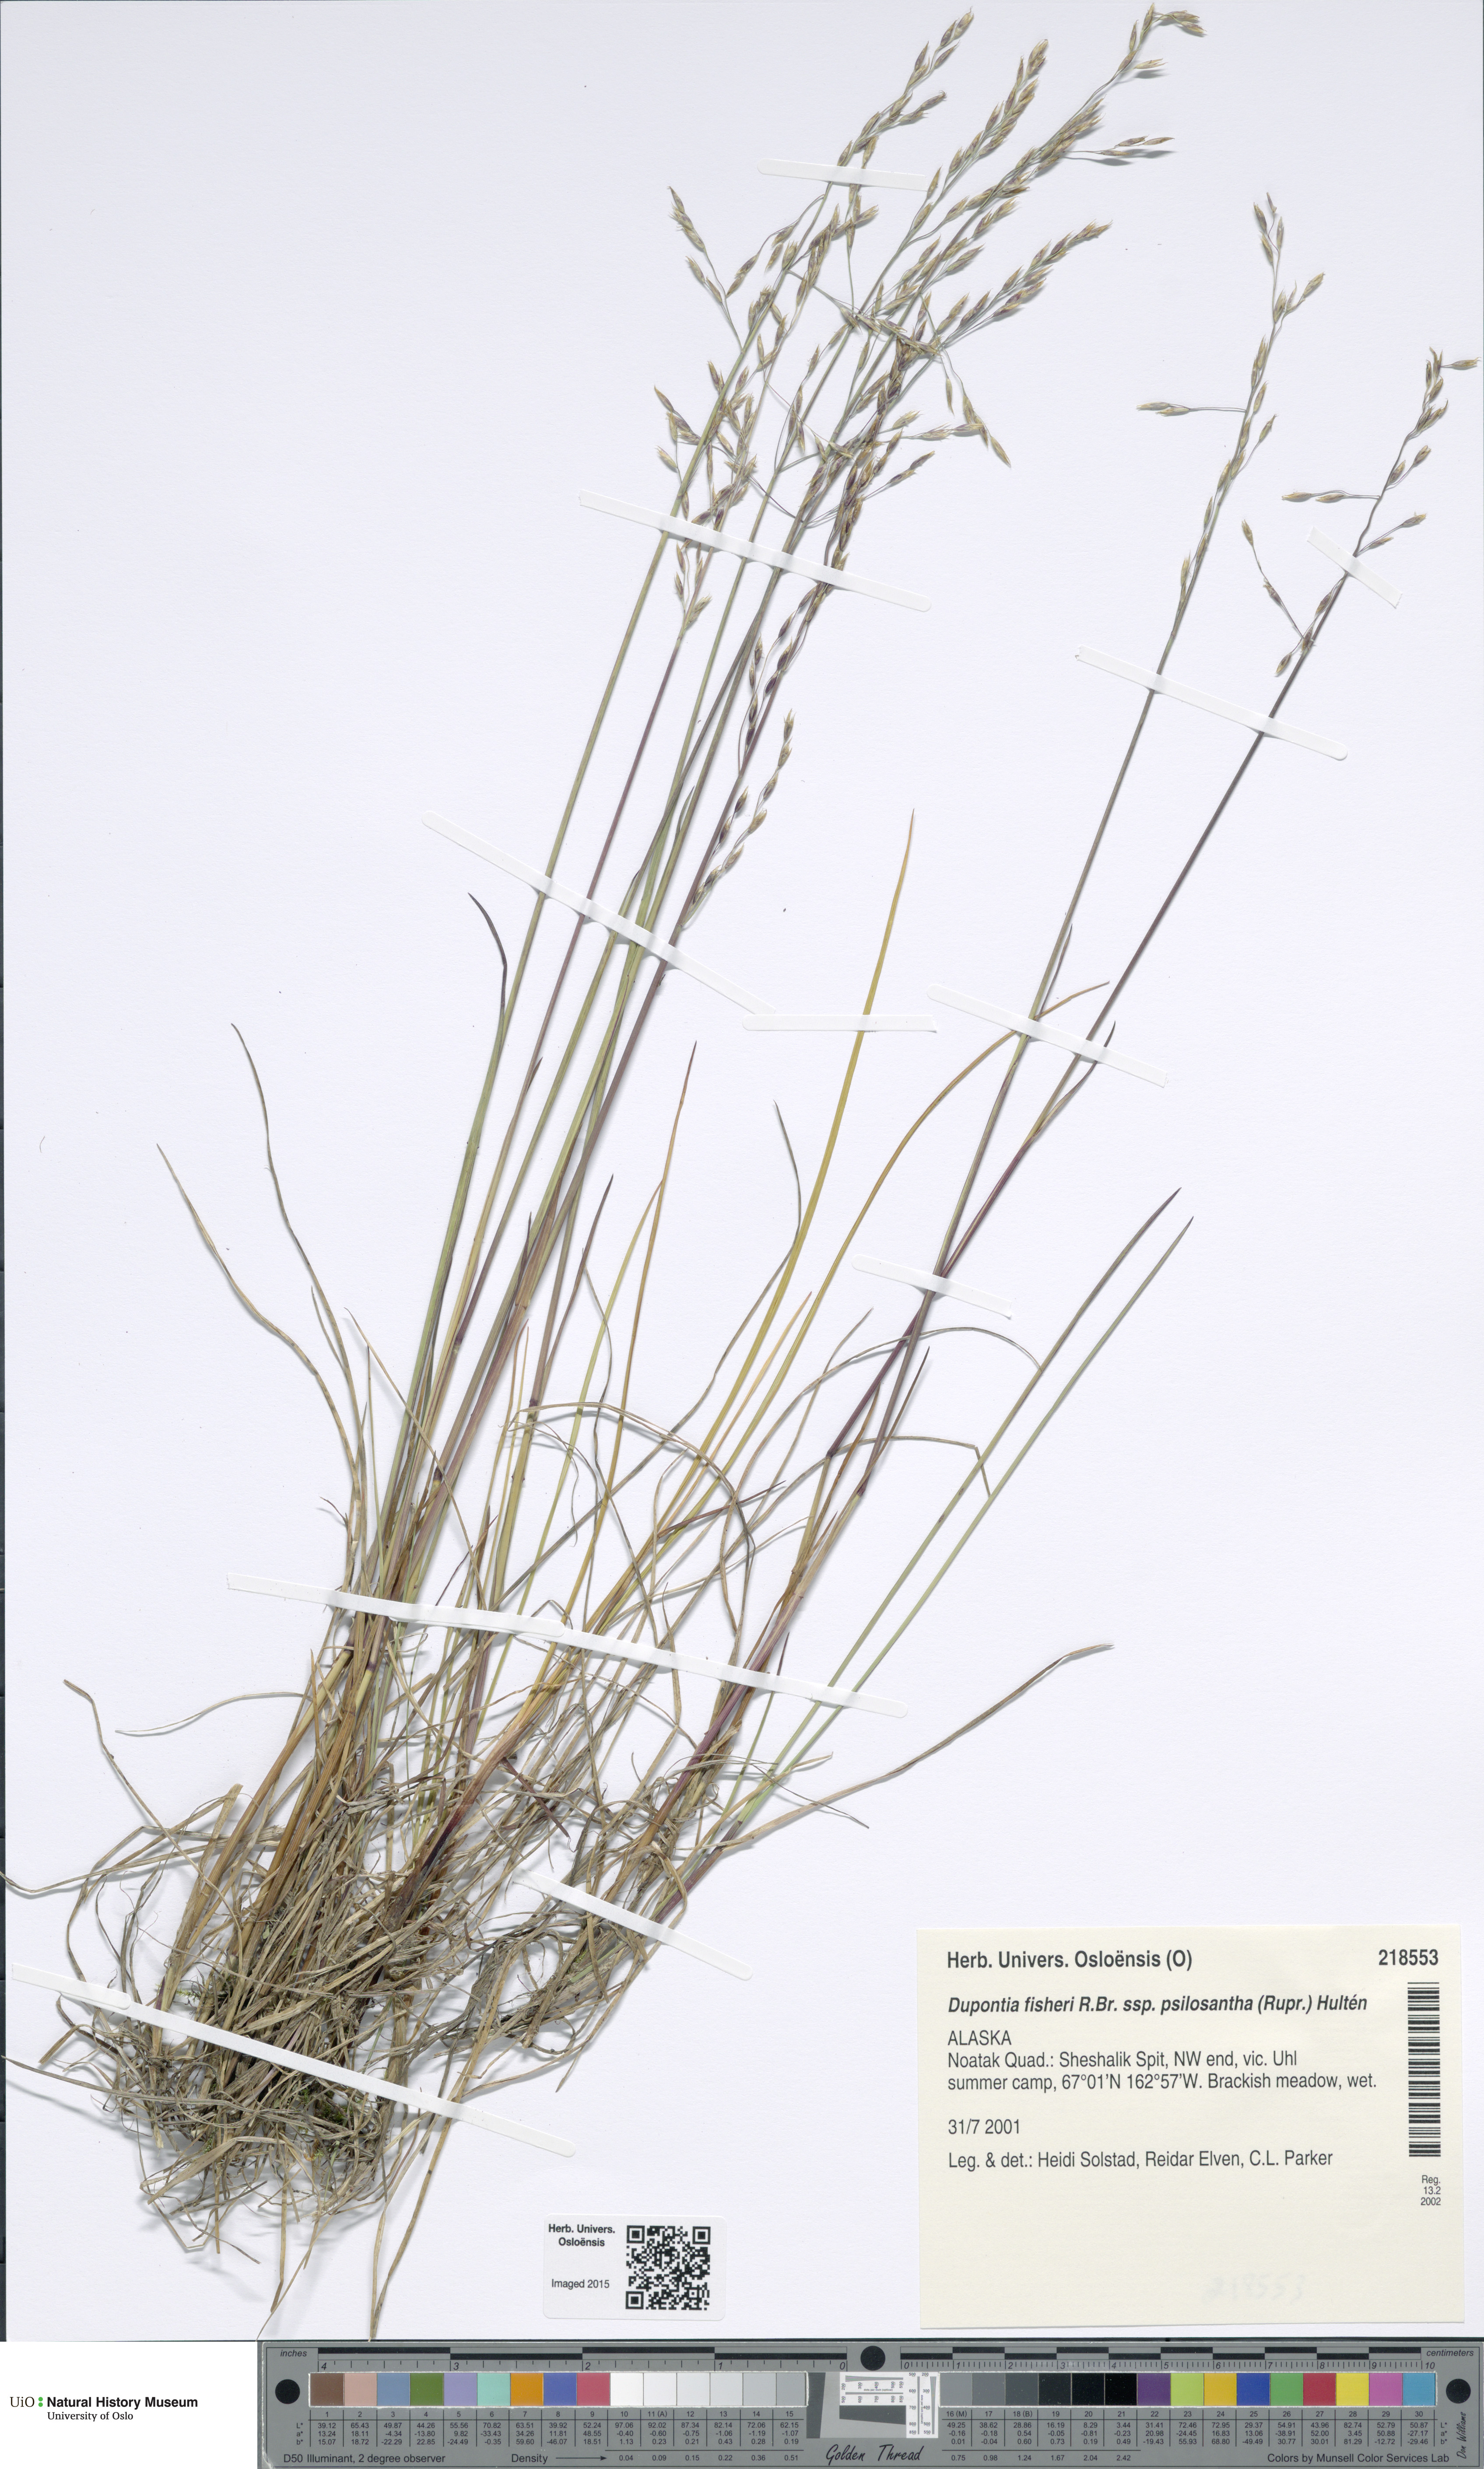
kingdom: Plantae
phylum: Tracheophyta
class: Liliopsida
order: Poales
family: Poaceae
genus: Dupontia
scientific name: Dupontia fisheri
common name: Tundra grass
